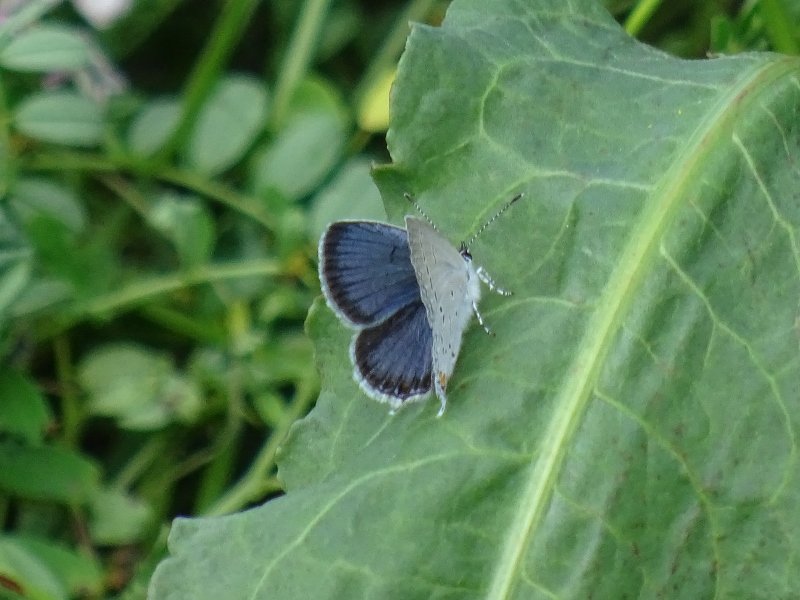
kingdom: Animalia
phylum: Arthropoda
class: Insecta
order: Lepidoptera
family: Lycaenidae
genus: Elkalyce
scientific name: Elkalyce comyntas
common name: Eastern Tailed-Blue
